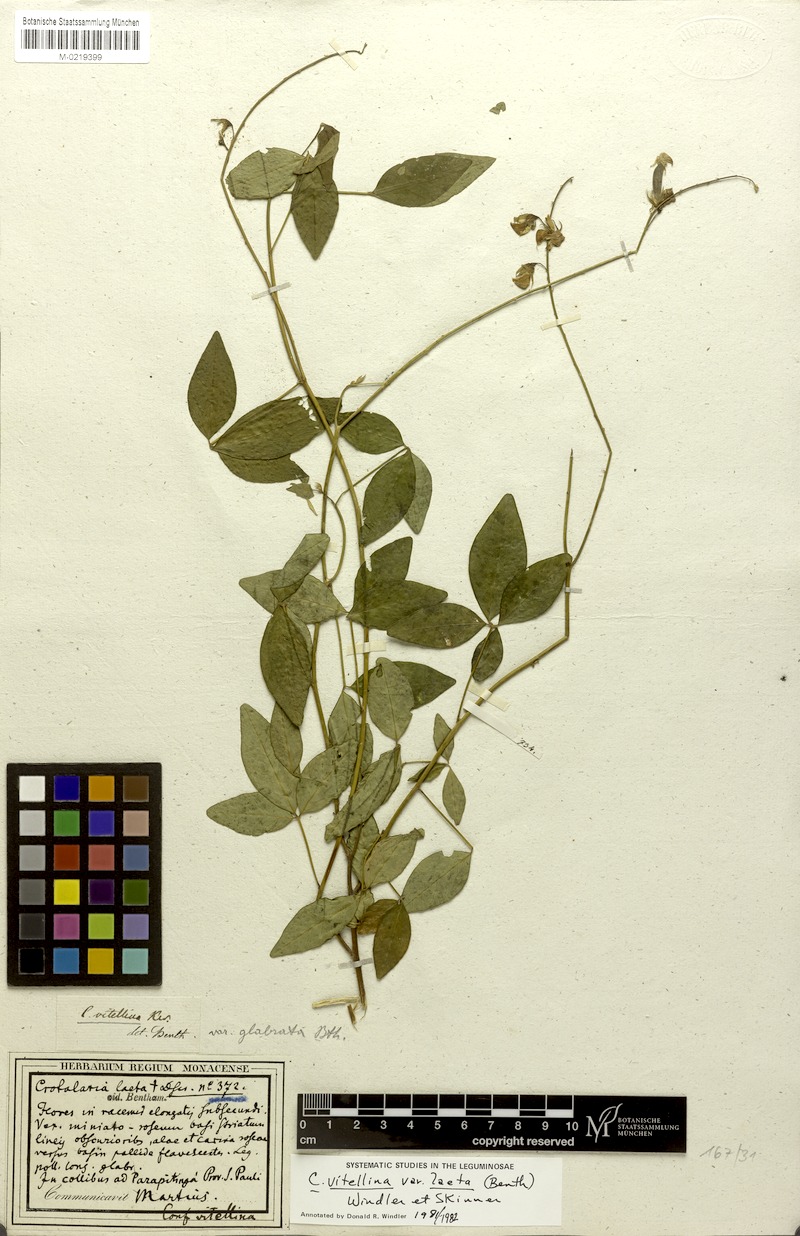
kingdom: Plantae
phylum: Tracheophyta
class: Magnoliopsida
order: Fabales
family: Fabaceae
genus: Crotalaria
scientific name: Crotalaria laeta
